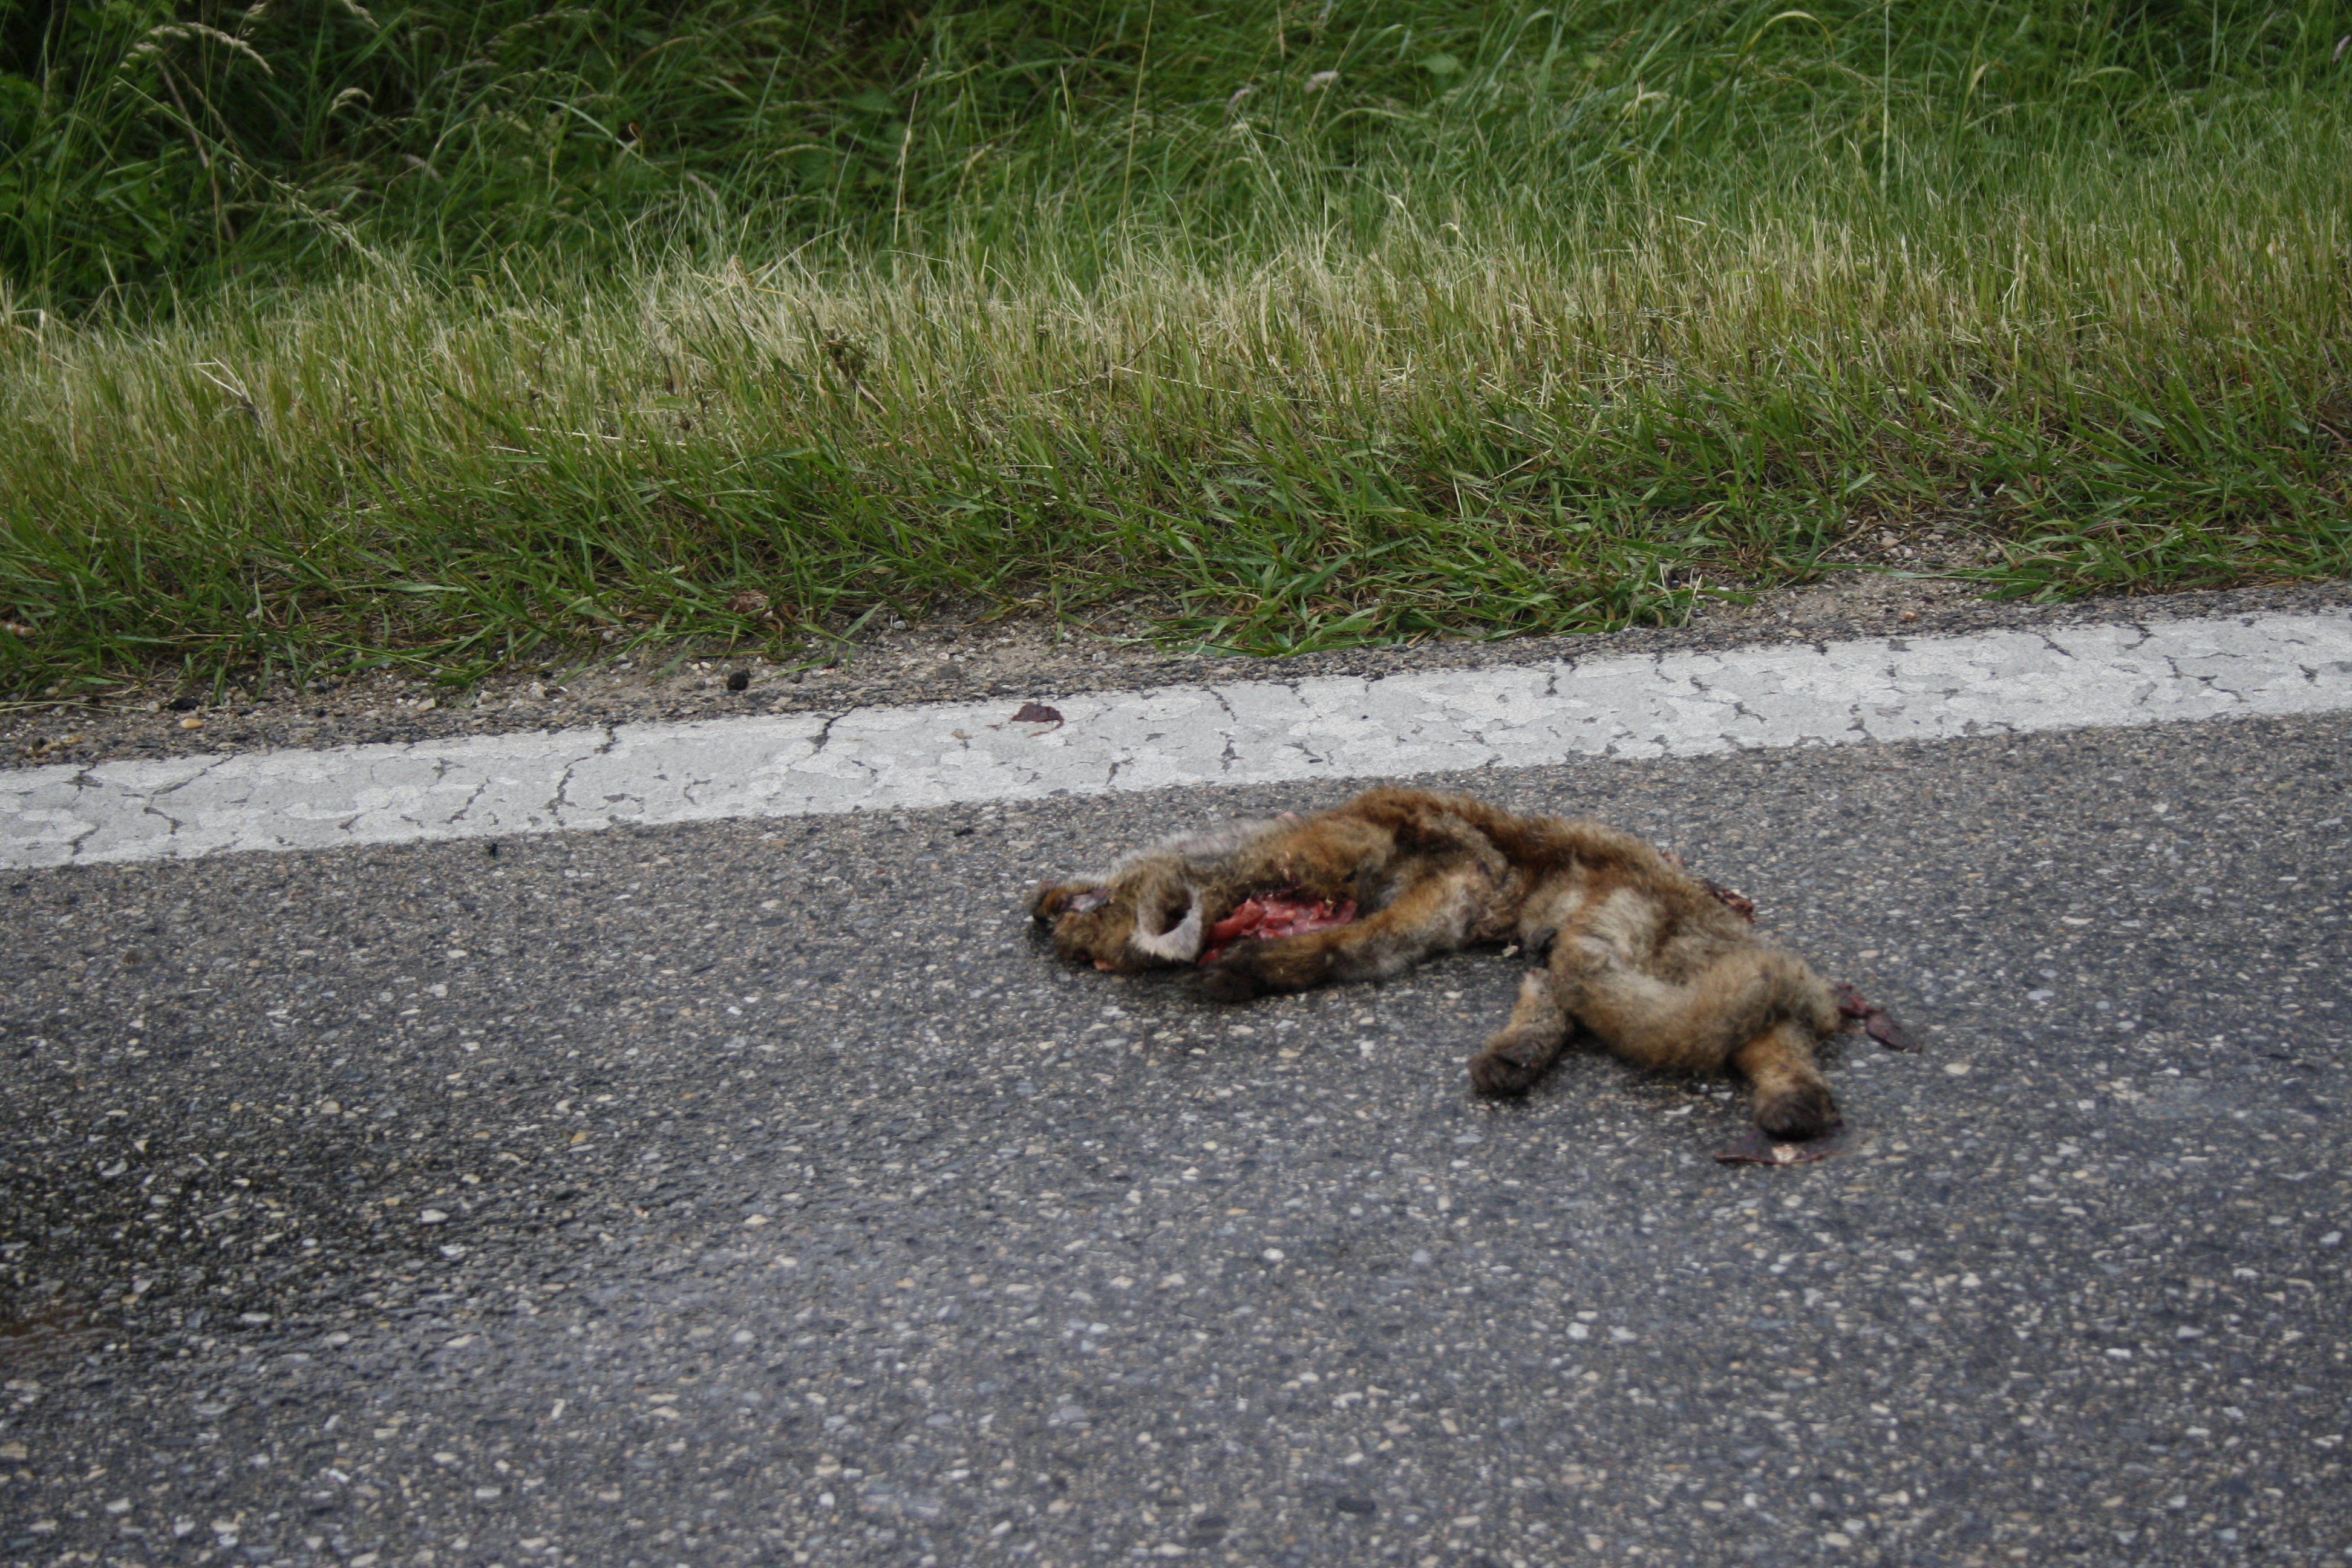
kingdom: Animalia
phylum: Chordata
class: Mammalia
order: Carnivora
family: Canidae
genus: Vulpes
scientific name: Vulpes vulpes
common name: Red fox
